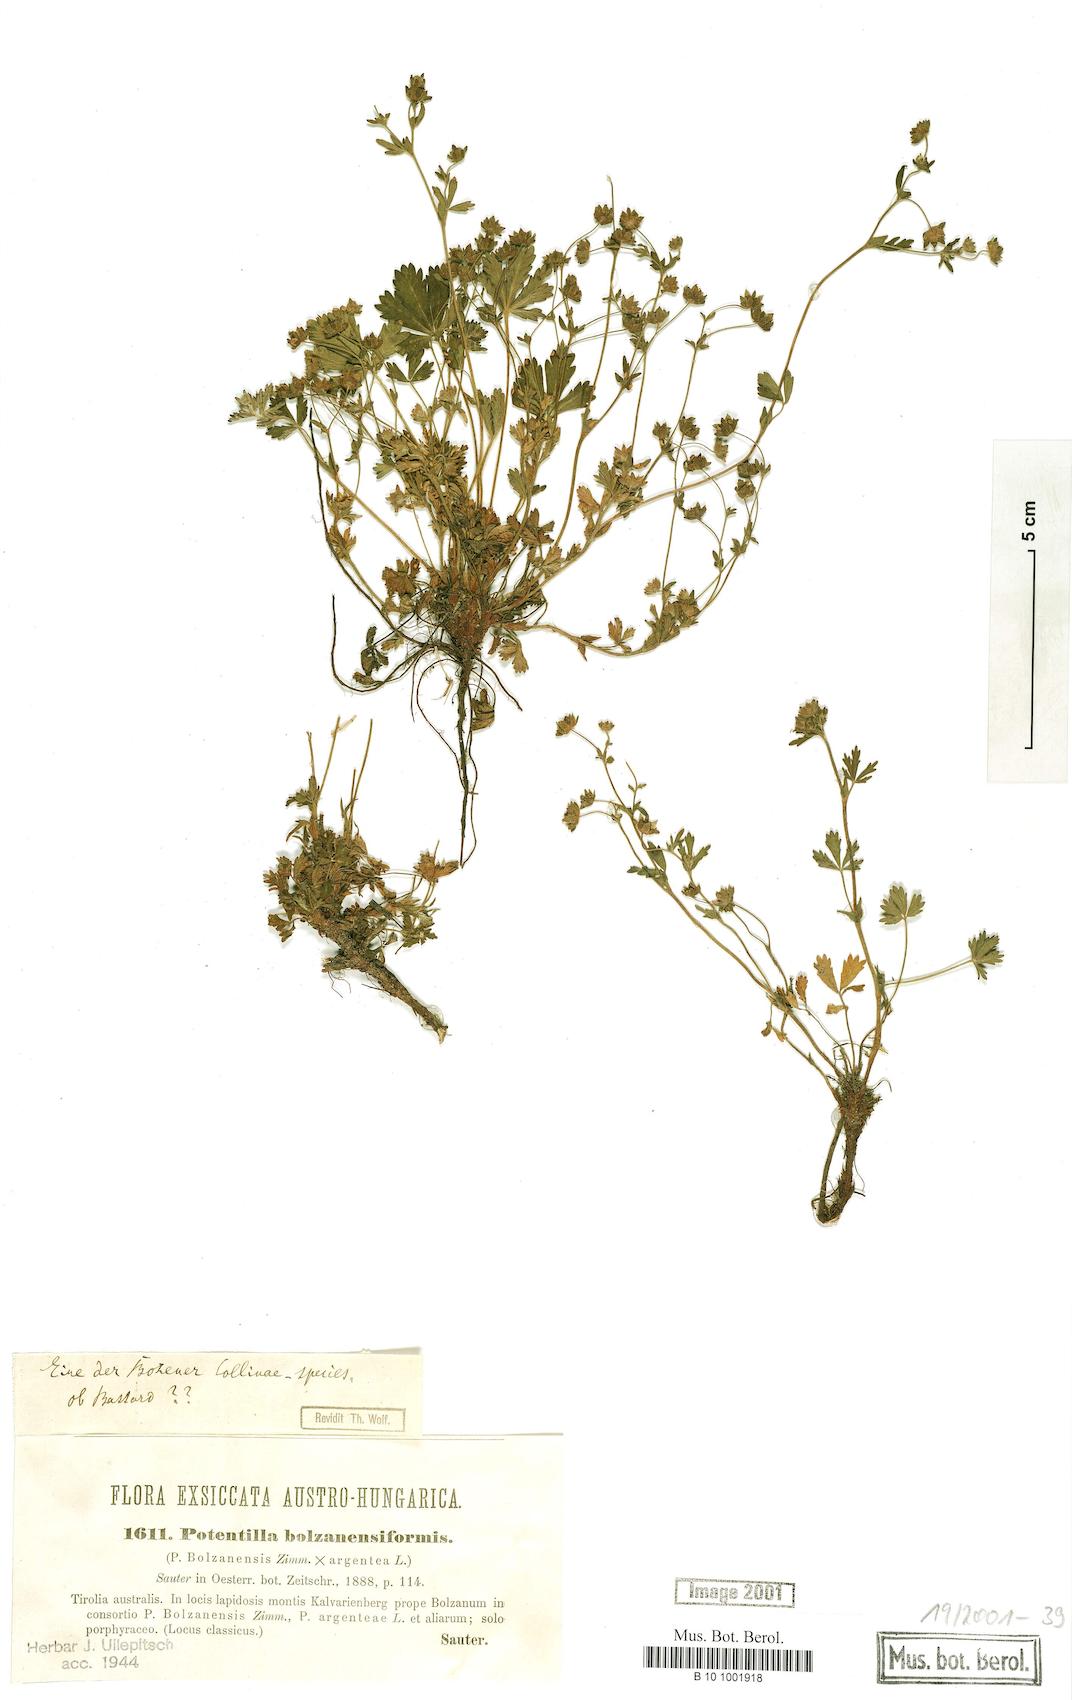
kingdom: Plantae
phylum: Tracheophyta
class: Magnoliopsida
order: Rosales
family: Rosaceae
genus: Potentilla
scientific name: Potentilla bolzanensiformis
